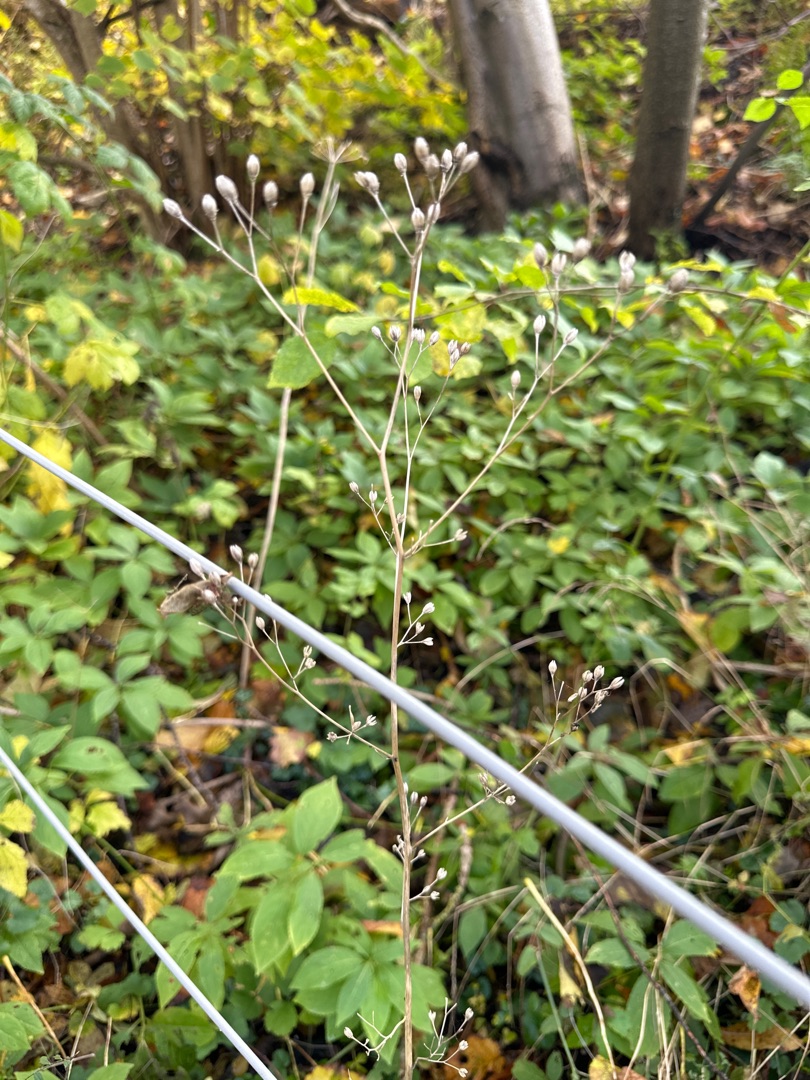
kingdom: Plantae
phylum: Tracheophyta
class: Magnoliopsida
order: Asterales
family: Asteraceae
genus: Lapsana
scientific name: Lapsana communis
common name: Haremad
